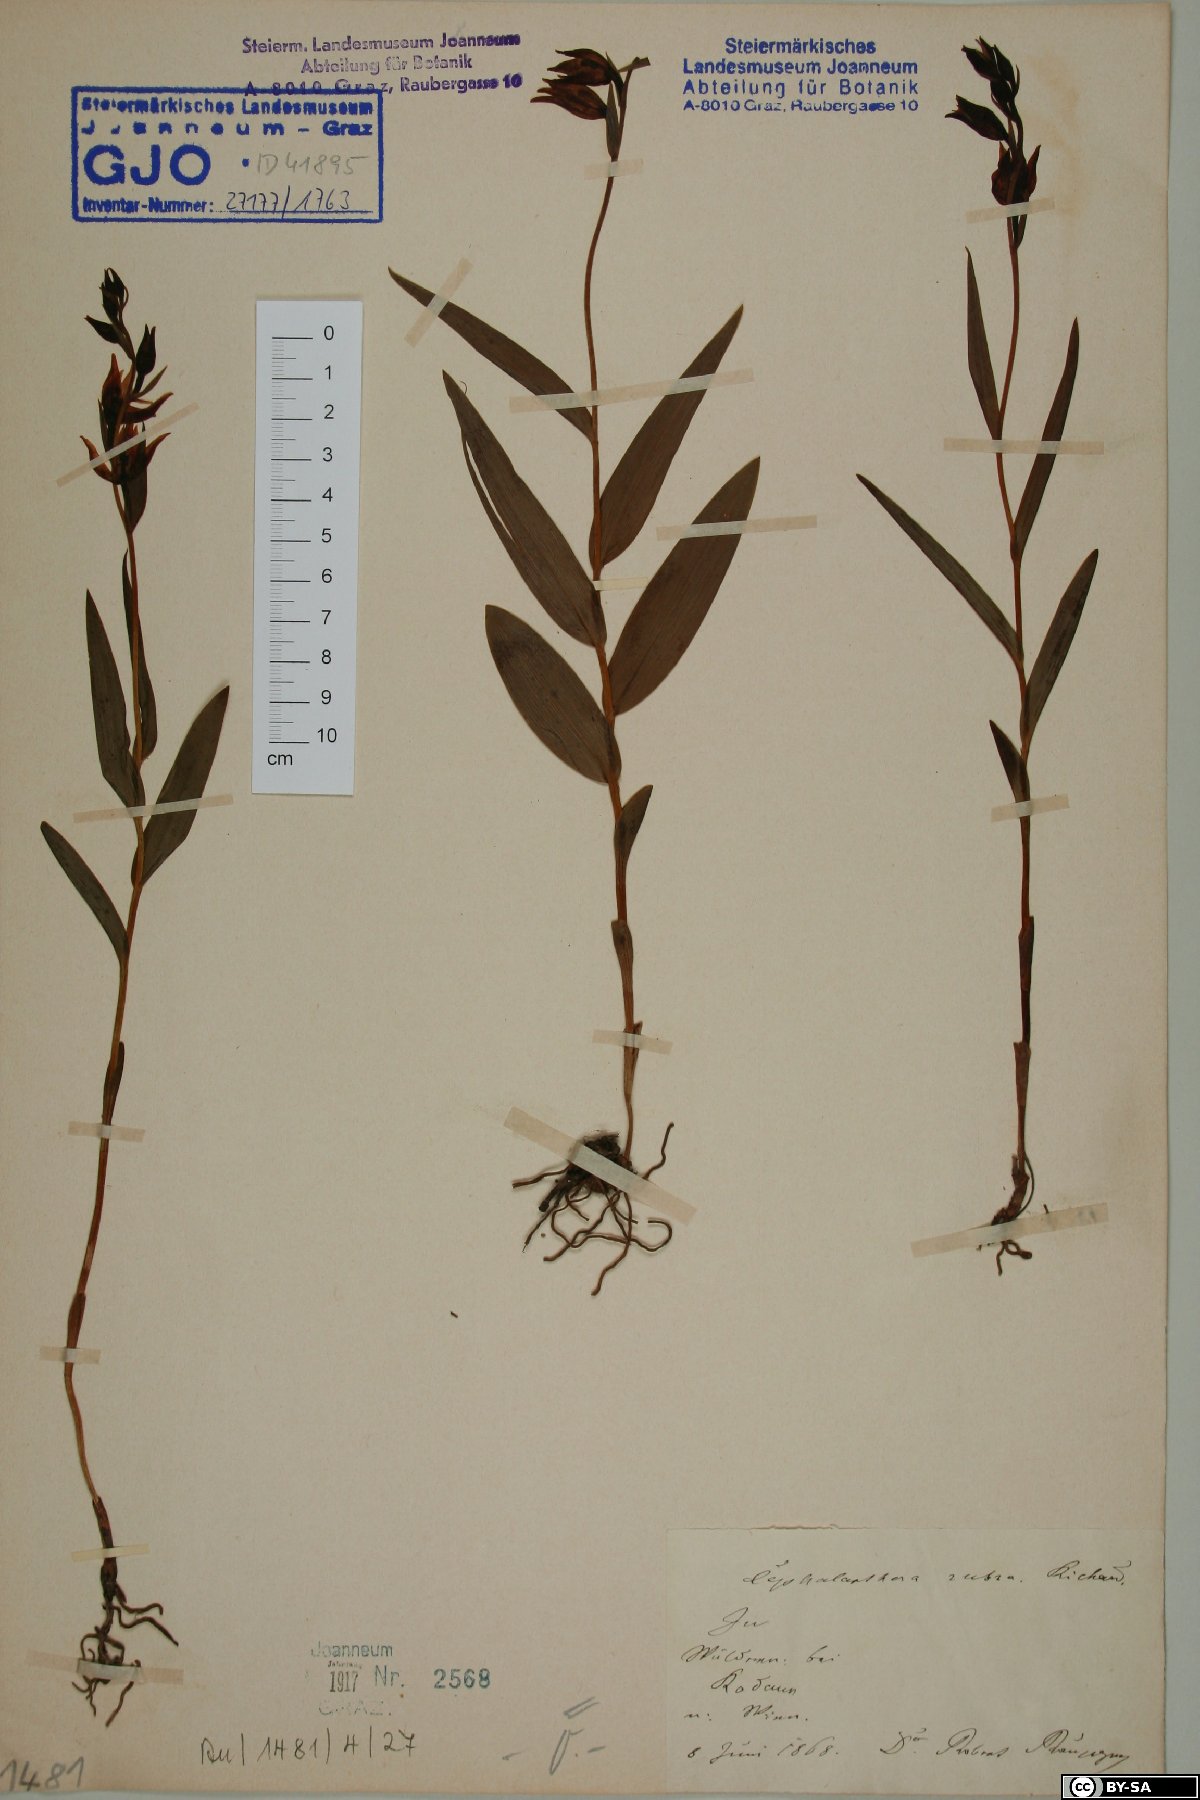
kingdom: Plantae
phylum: Tracheophyta
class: Liliopsida
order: Asparagales
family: Orchidaceae
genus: Cephalanthera
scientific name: Cephalanthera rubra
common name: Red helleborine
